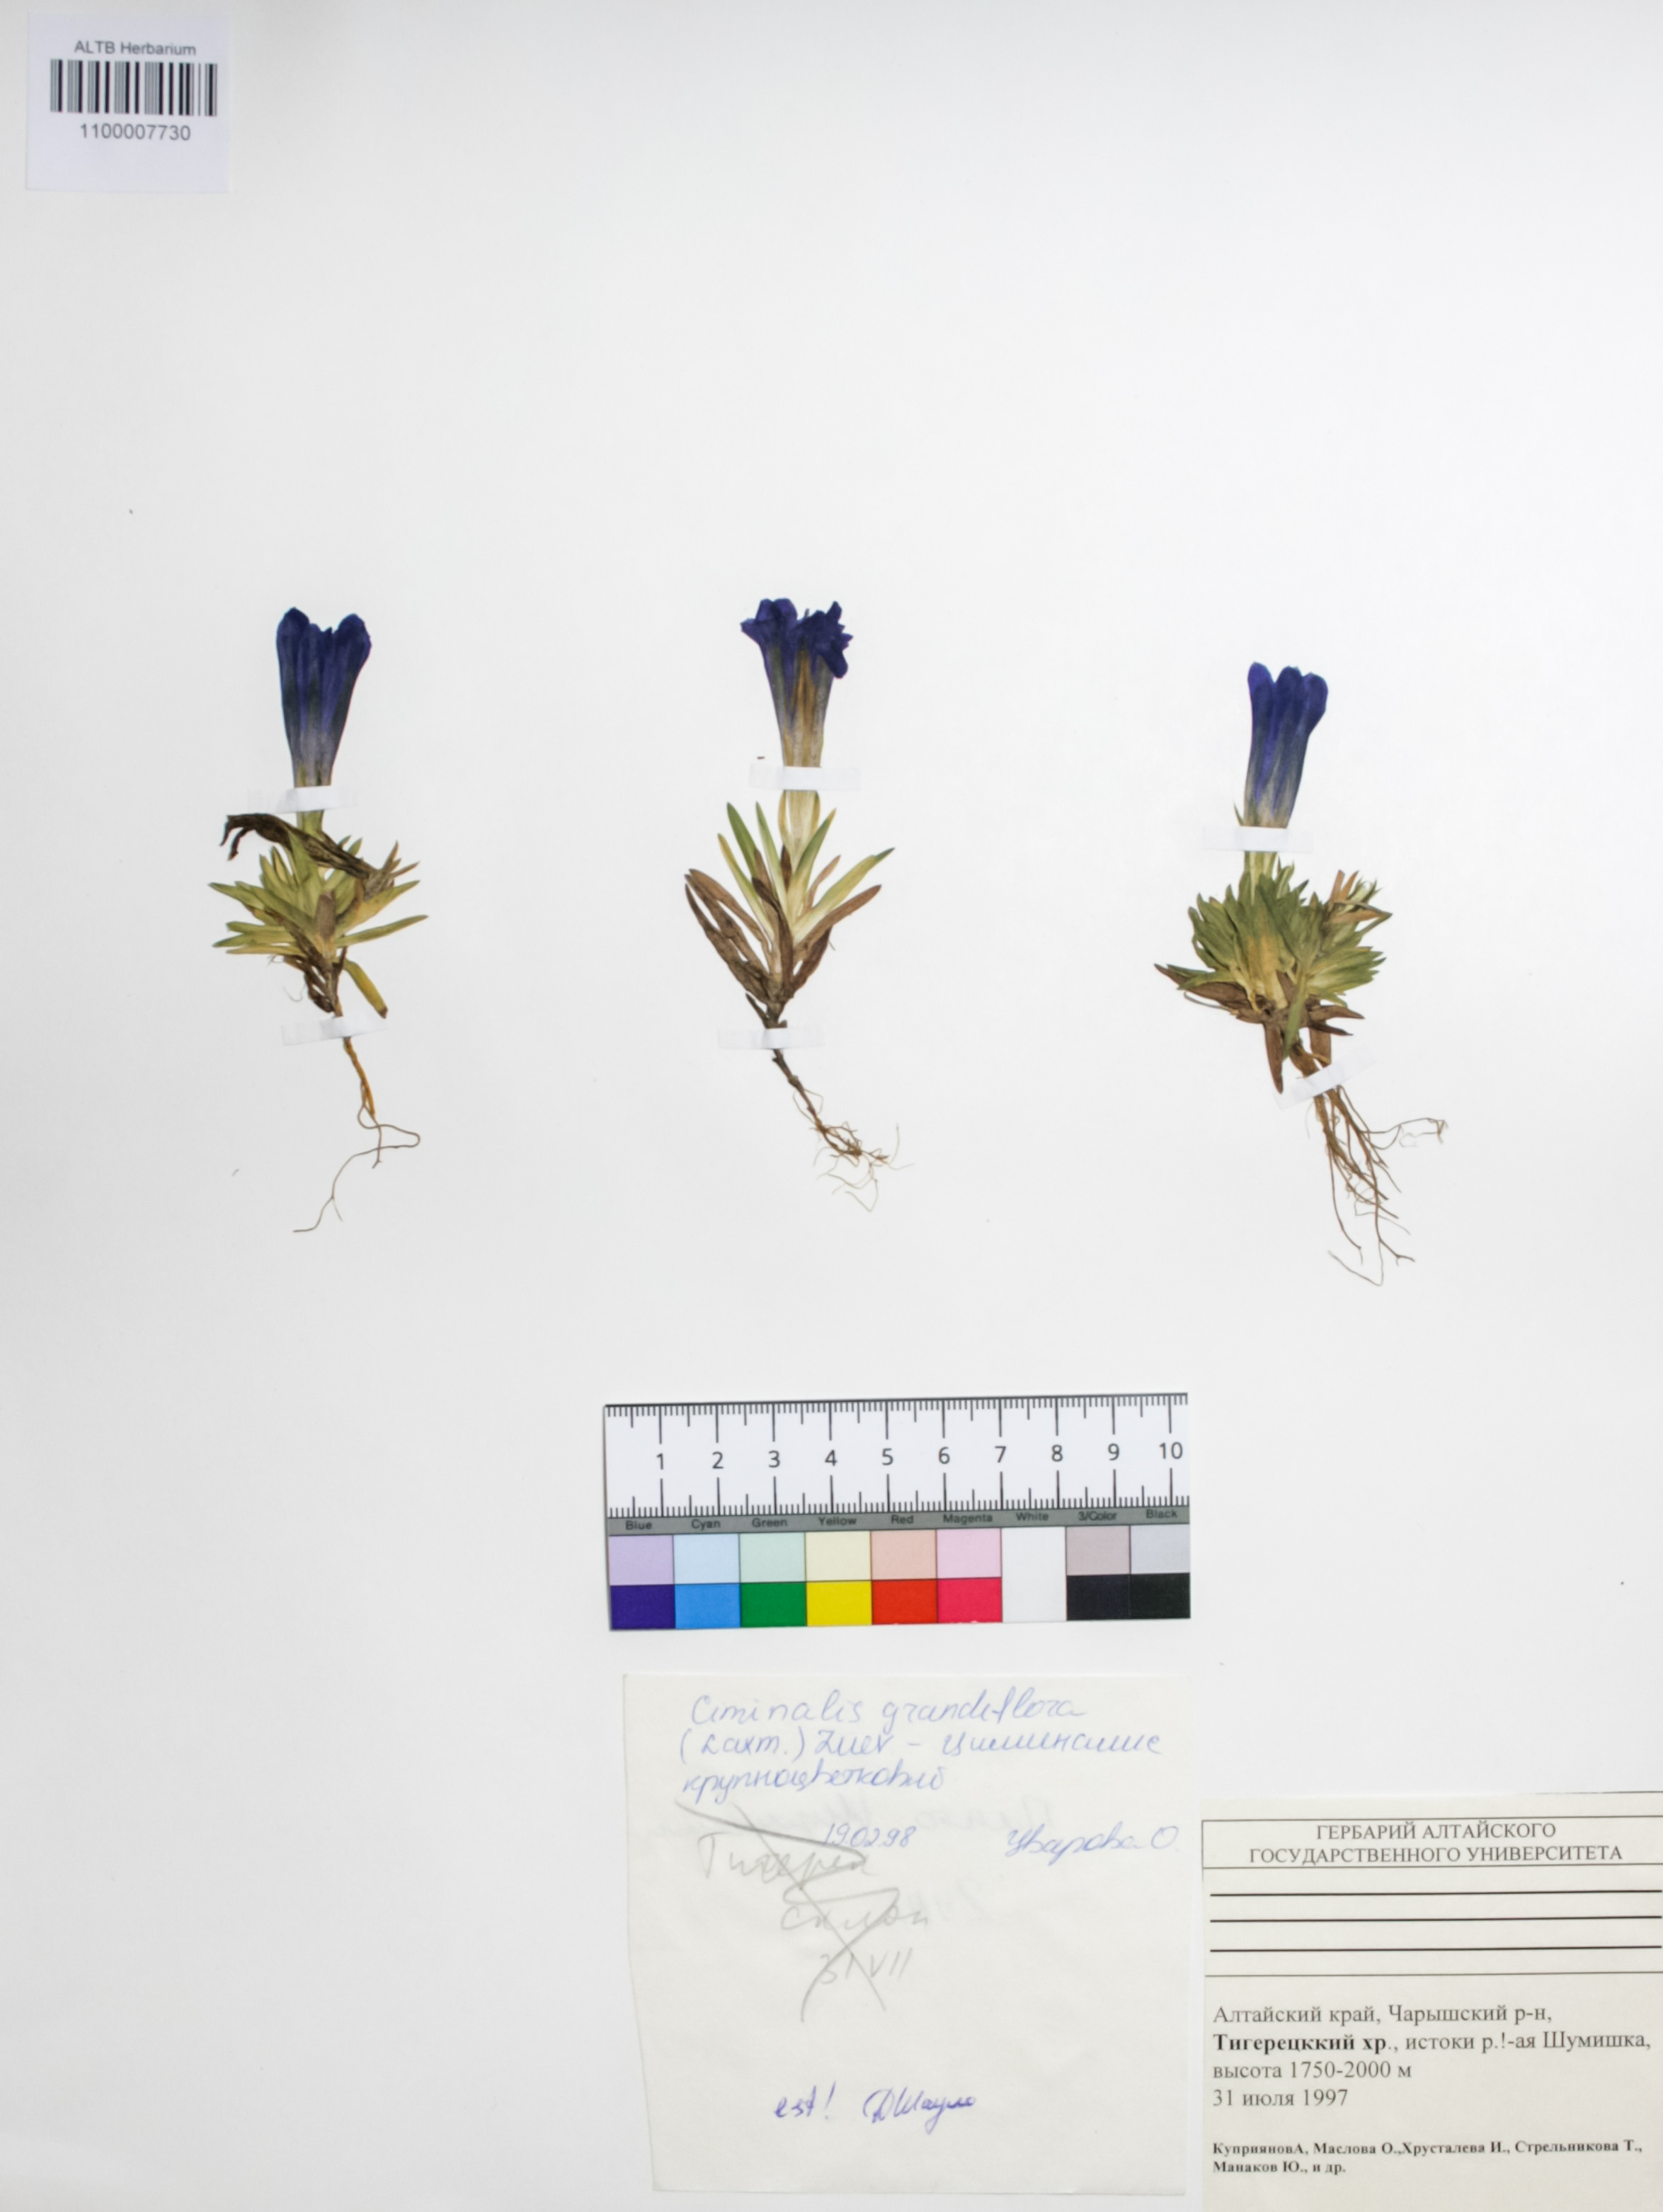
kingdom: Plantae
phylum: Tracheophyta
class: Magnoliopsida
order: Gentianales
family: Gentianaceae
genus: Gentiana
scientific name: Gentiana grandiflora
